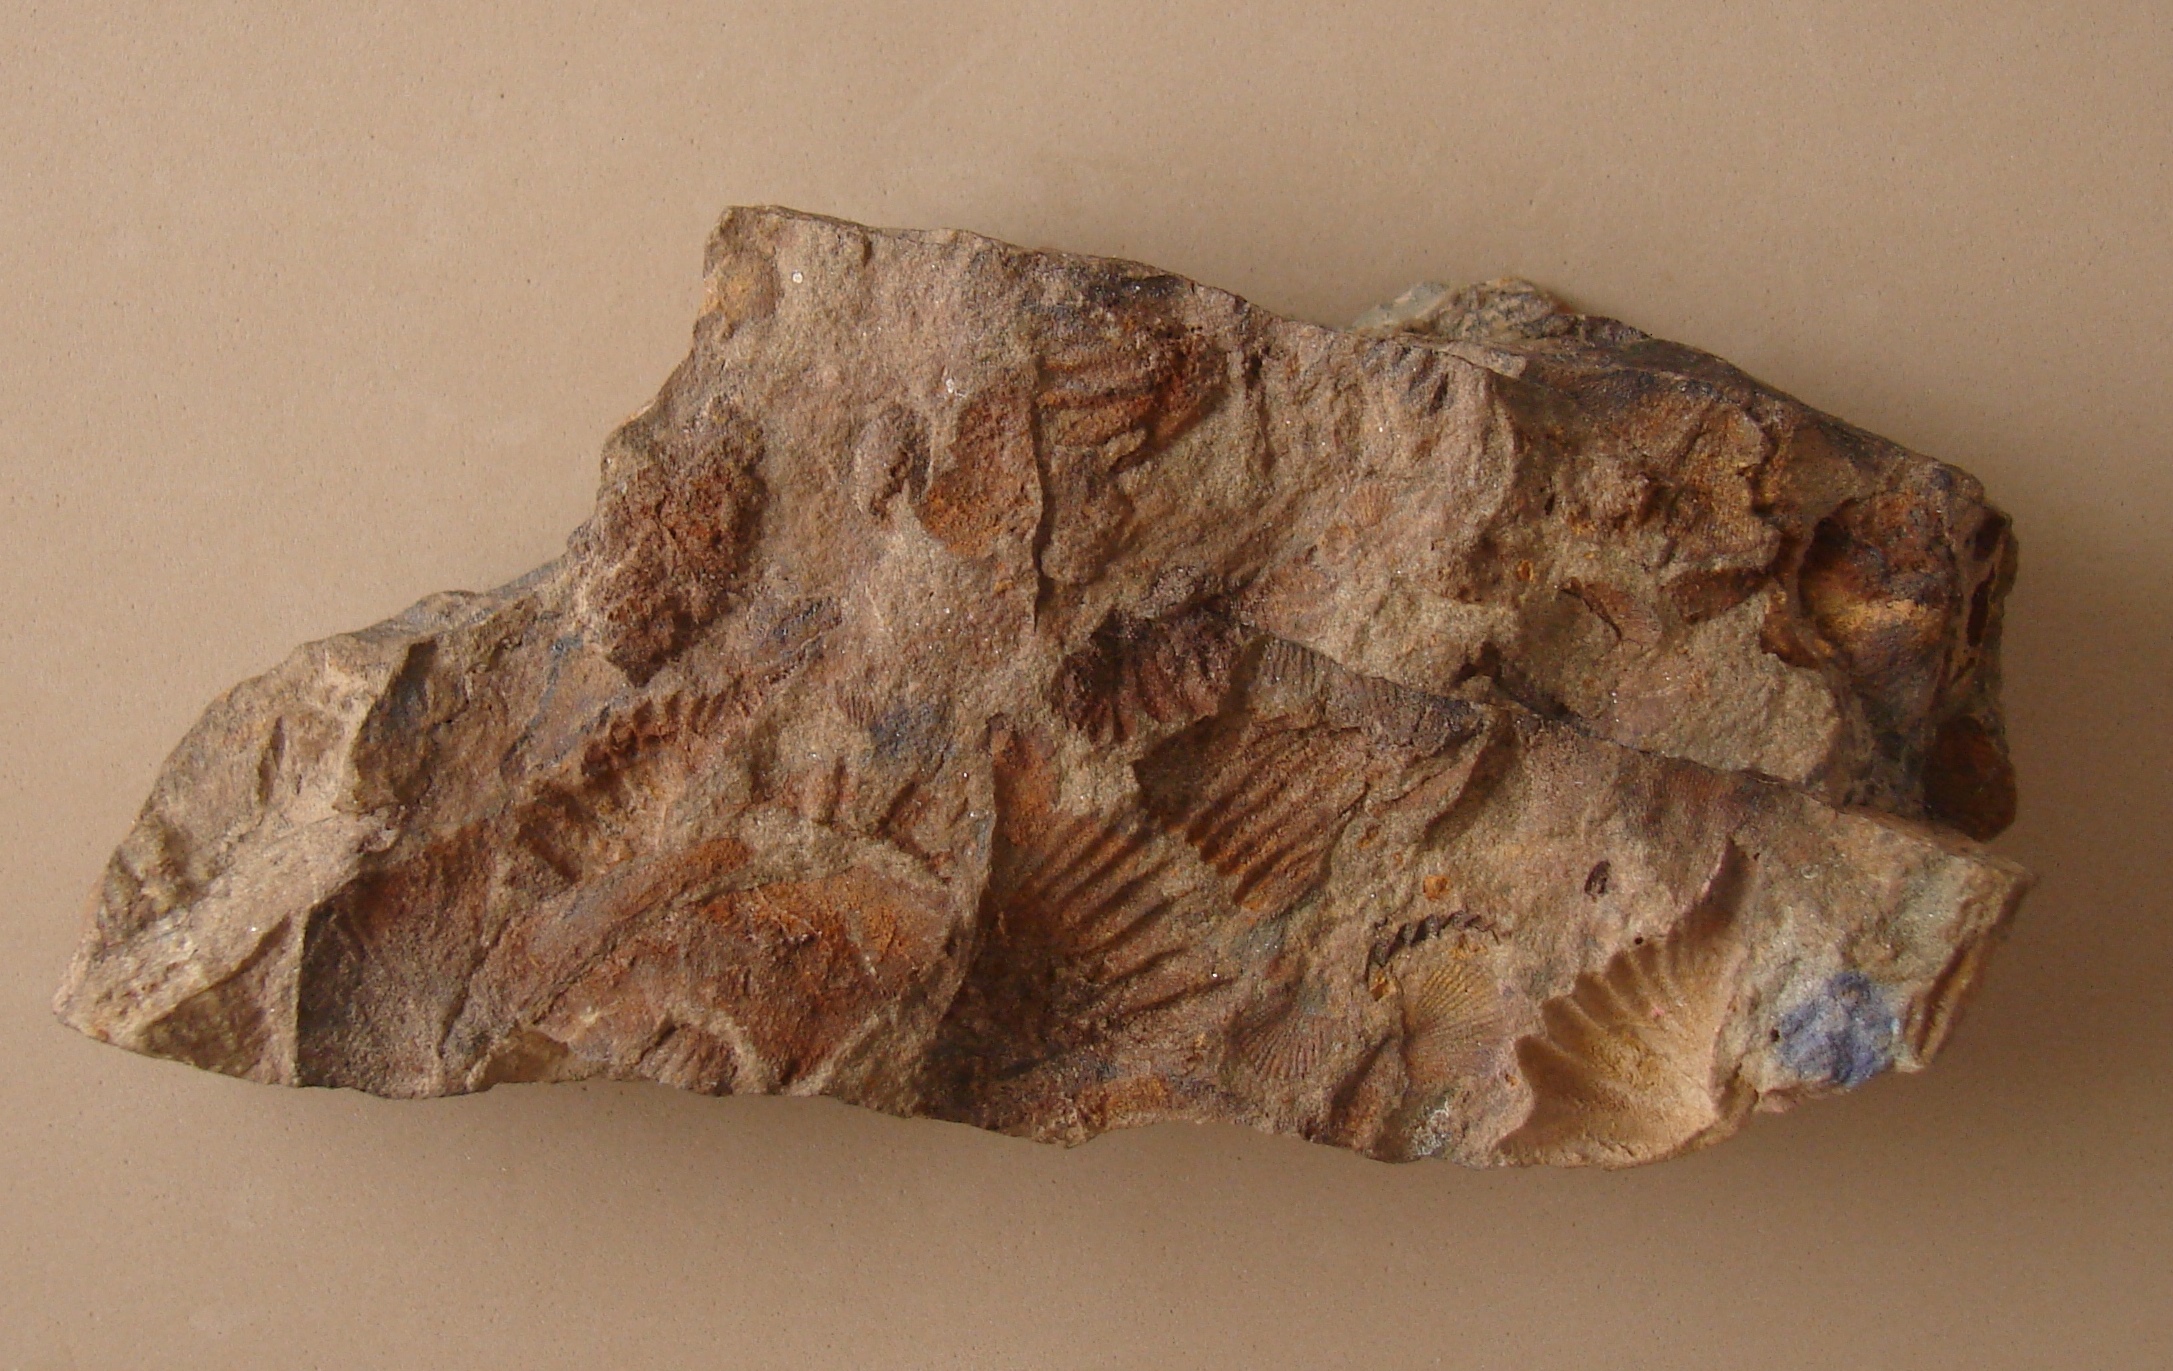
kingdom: Animalia
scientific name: Animalia
